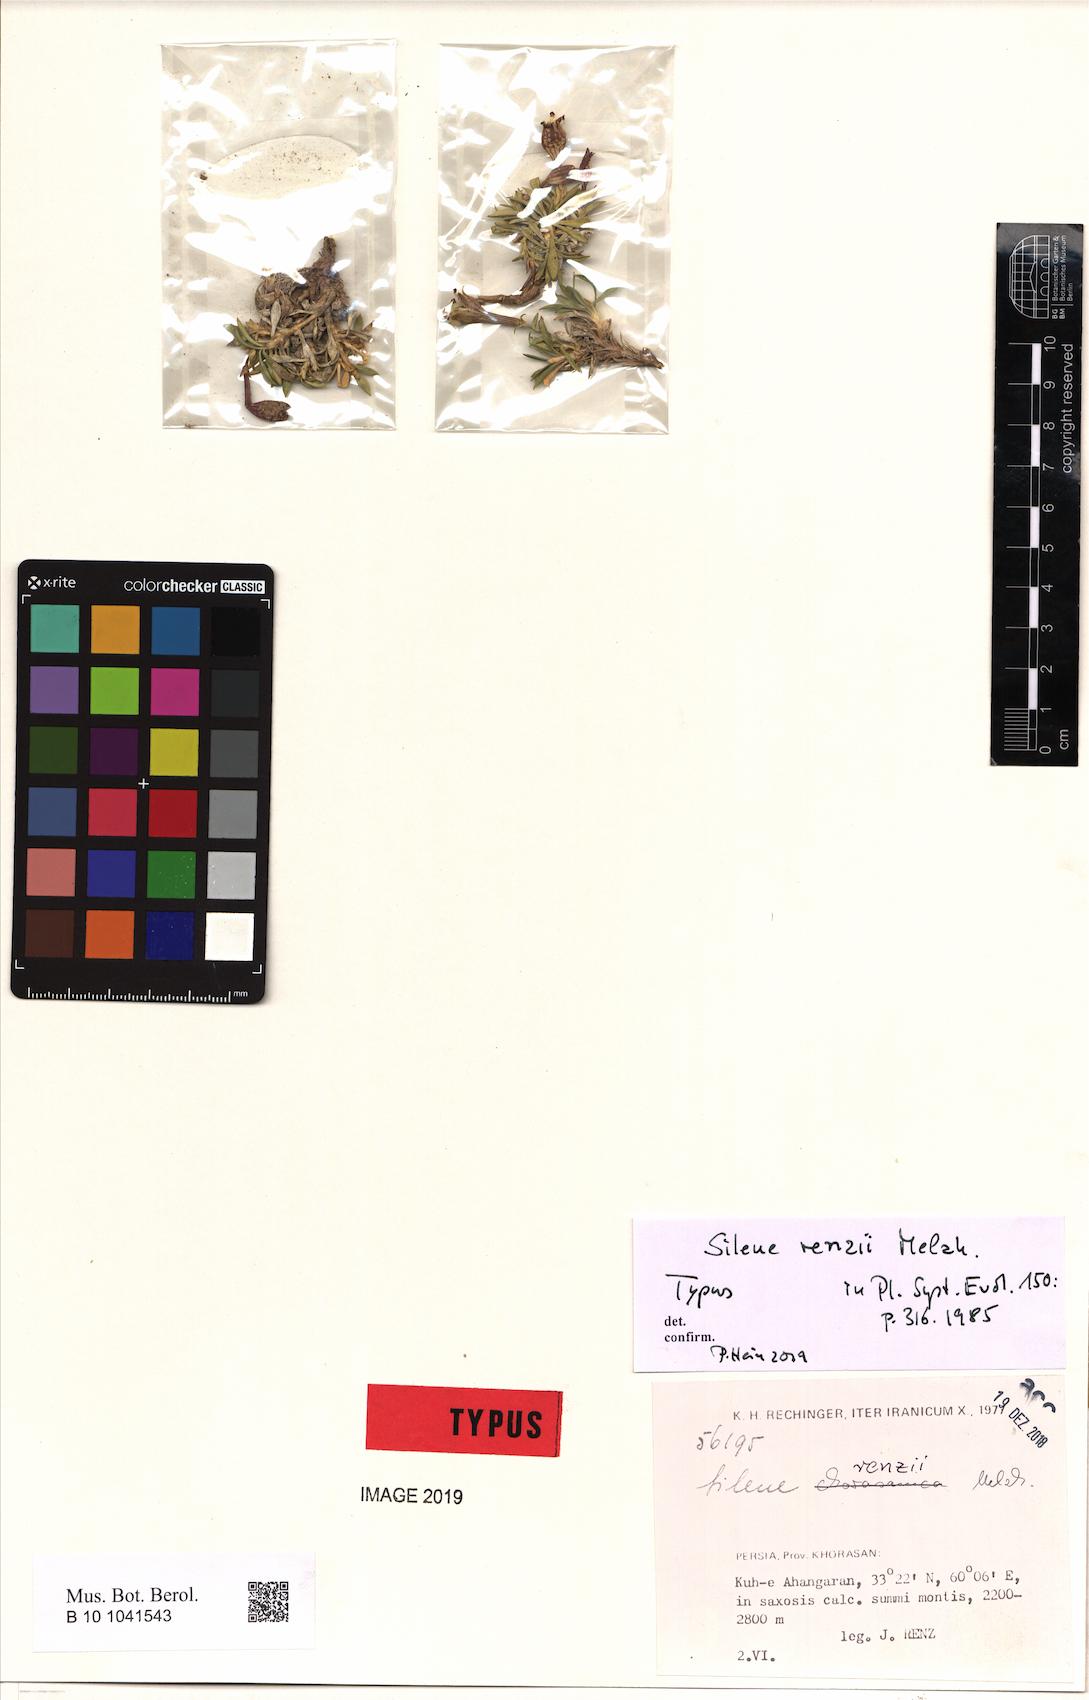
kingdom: Plantae
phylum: Tracheophyta
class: Magnoliopsida
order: Caryophyllales
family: Caryophyllaceae
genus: Silene
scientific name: Silene renzii
